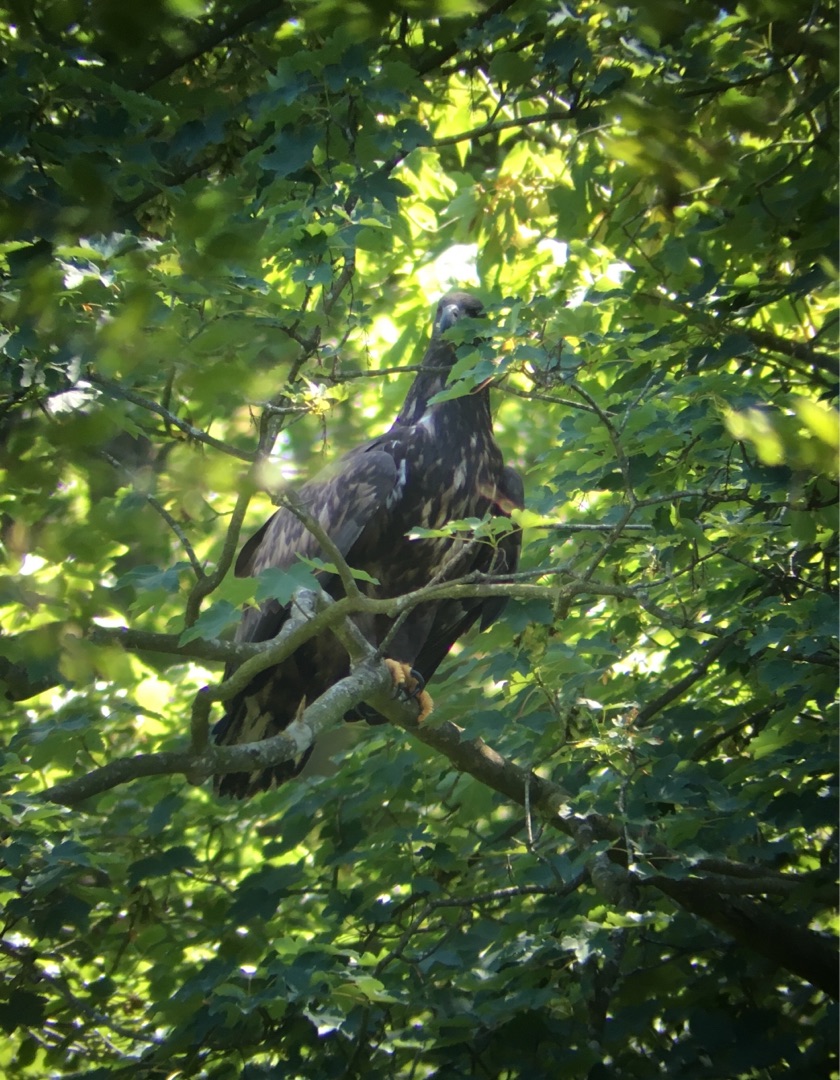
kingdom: Animalia
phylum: Chordata
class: Aves
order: Accipitriformes
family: Accipitridae
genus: Haliaeetus
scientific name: Haliaeetus albicilla
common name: Havørn
